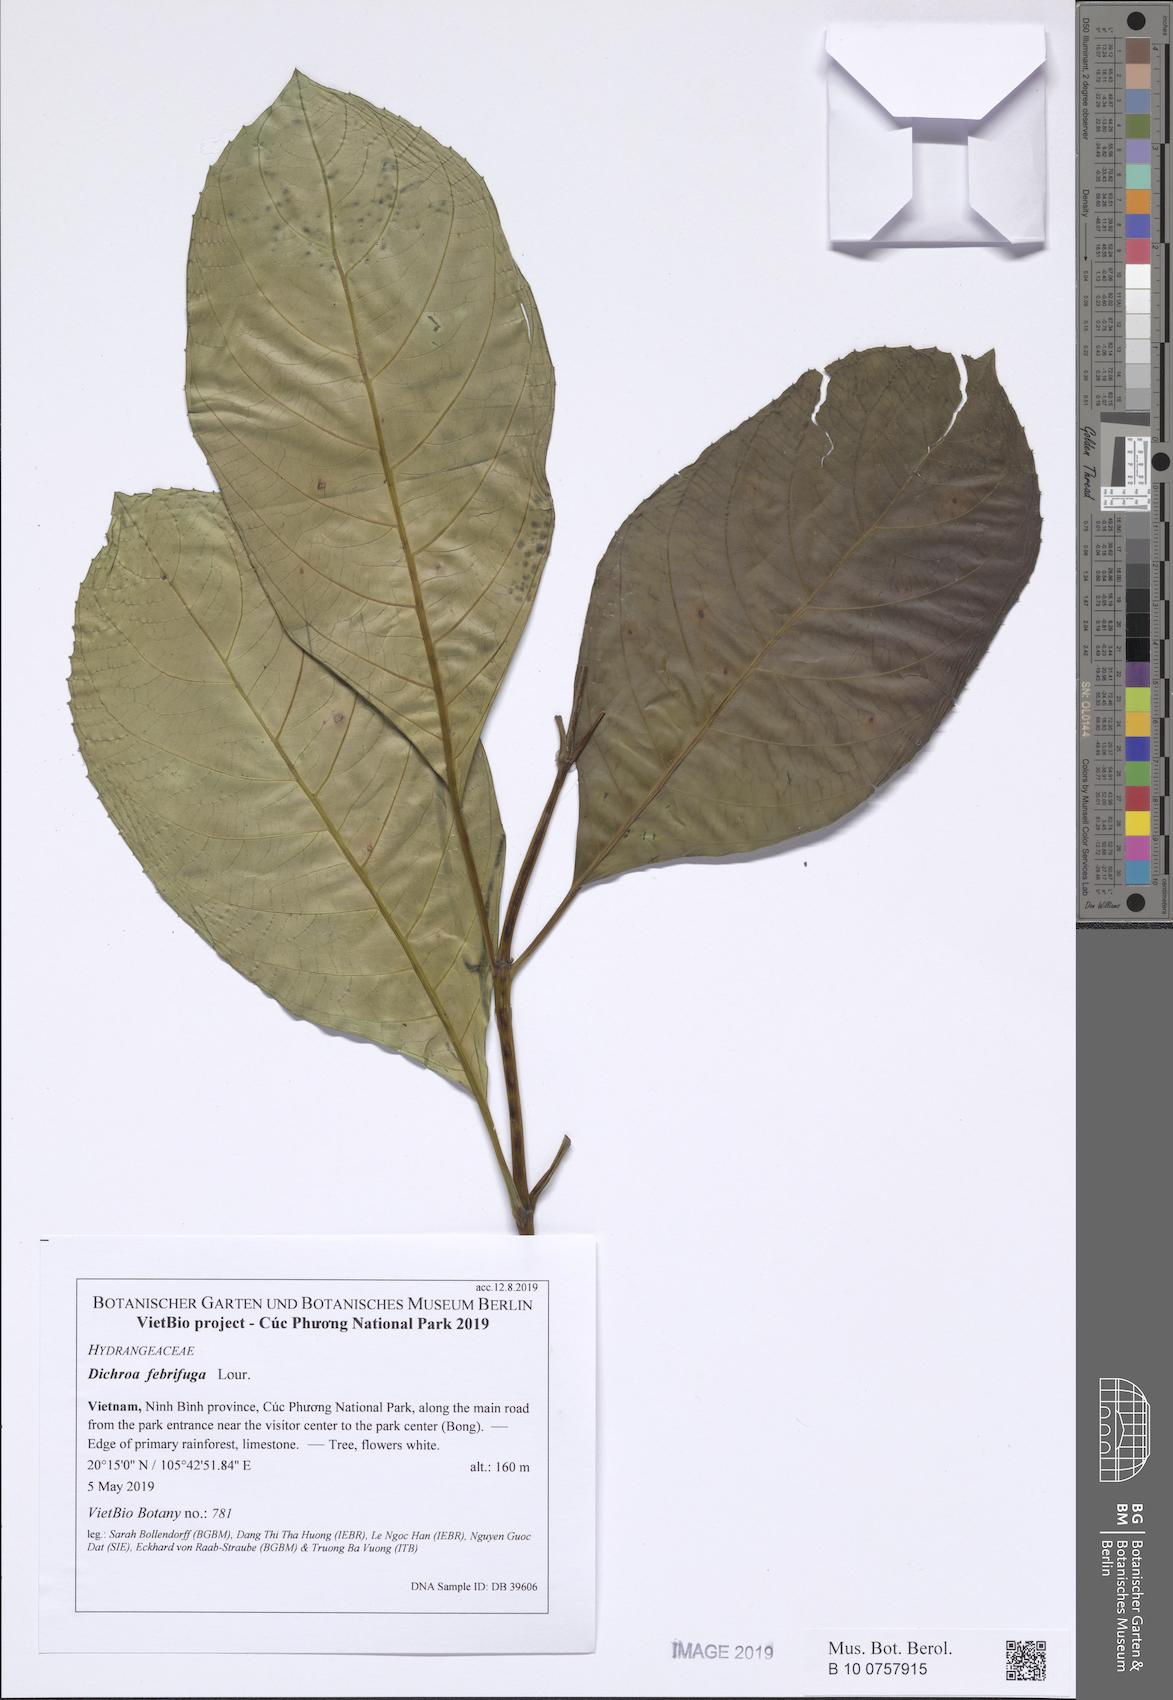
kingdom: Plantae
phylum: Tracheophyta
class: Magnoliopsida
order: Cornales
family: Hydrangeaceae
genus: Hydrangea
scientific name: Hydrangea febrifuga
